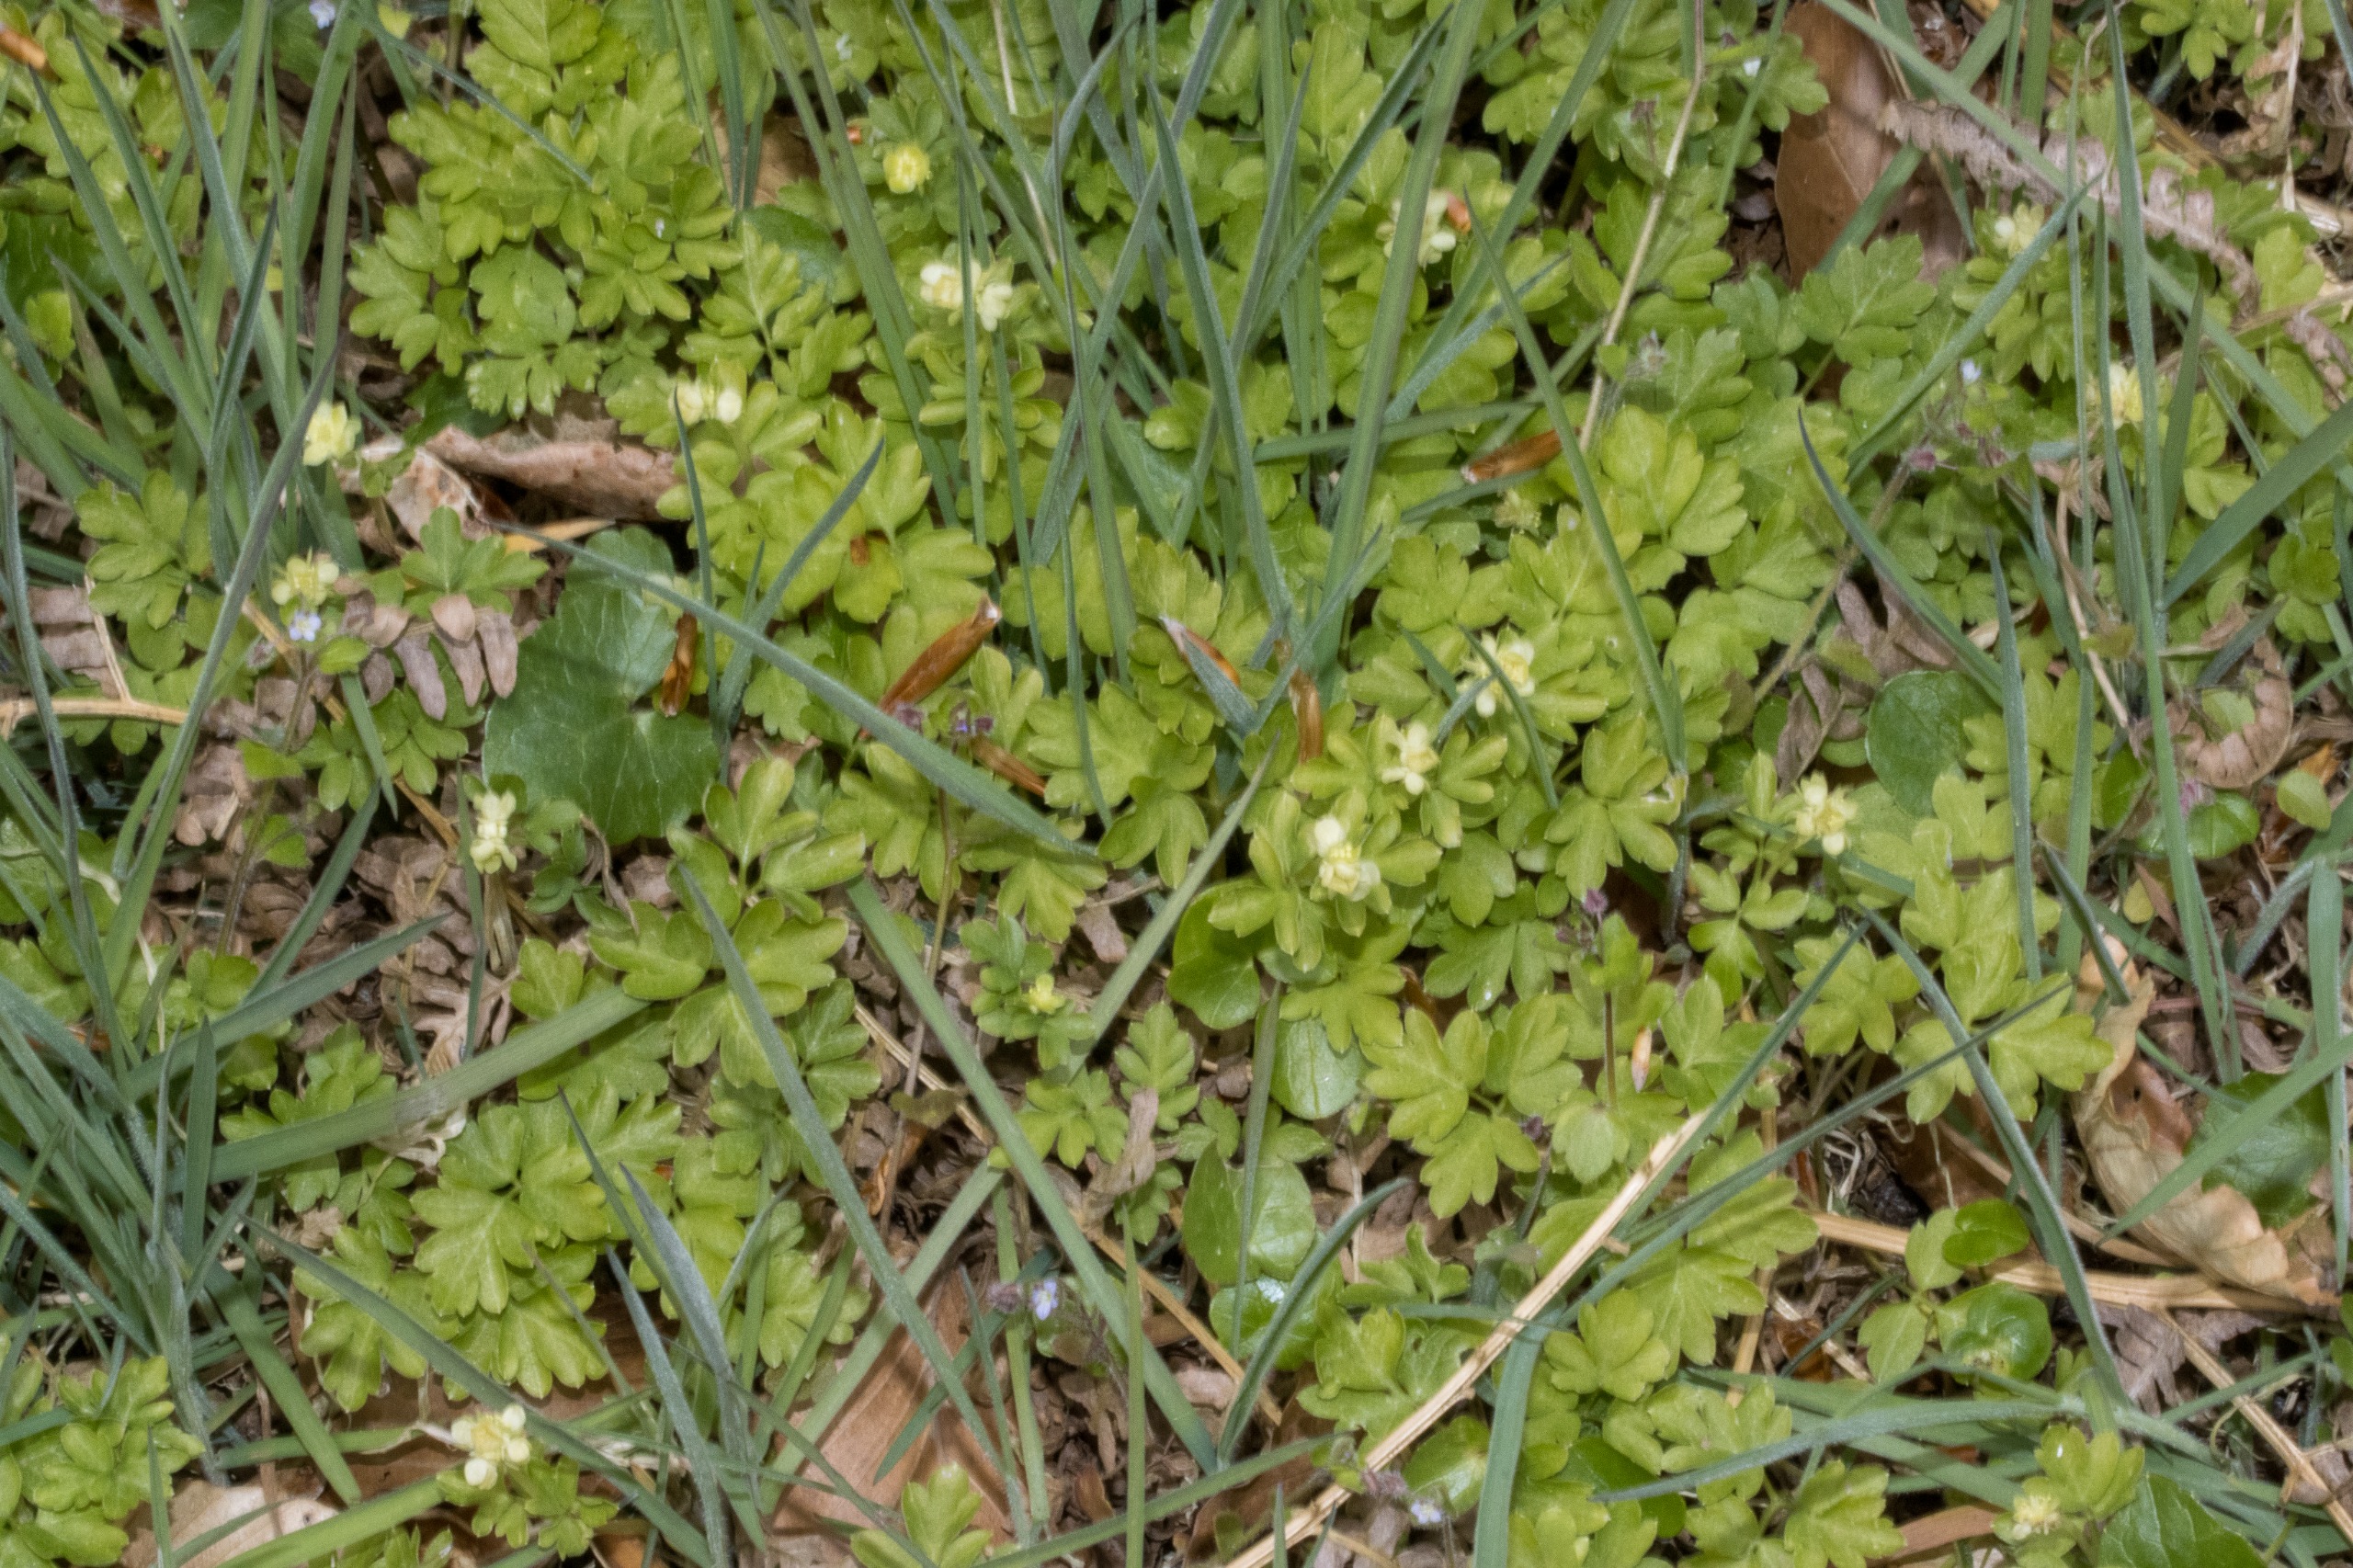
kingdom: Plantae
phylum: Tracheophyta
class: Magnoliopsida
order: Dipsacales
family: Viburnaceae
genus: Adoxa
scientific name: Adoxa moschatellina
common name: Desmerurt
